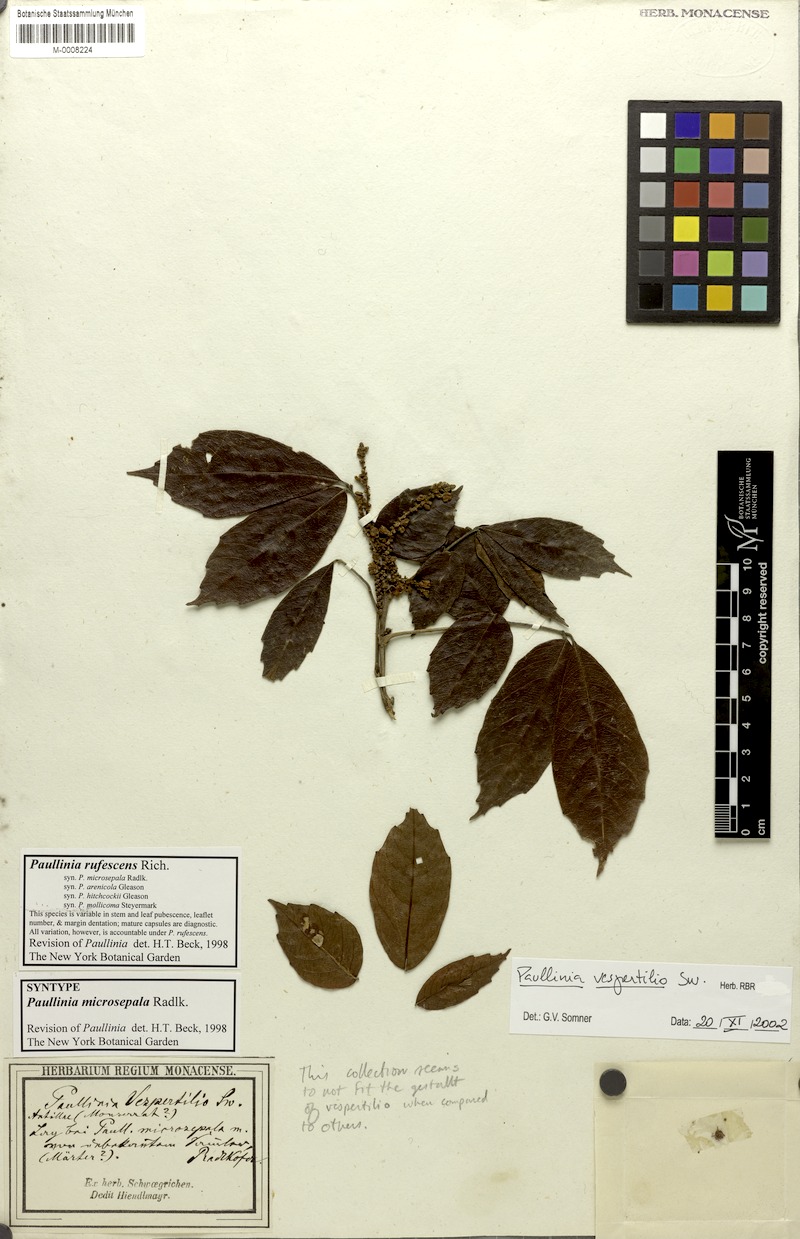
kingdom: Plantae
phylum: Tracheophyta
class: Magnoliopsida
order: Sapindales
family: Sapindaceae
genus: Paullinia
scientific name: Paullinia vespertilio
